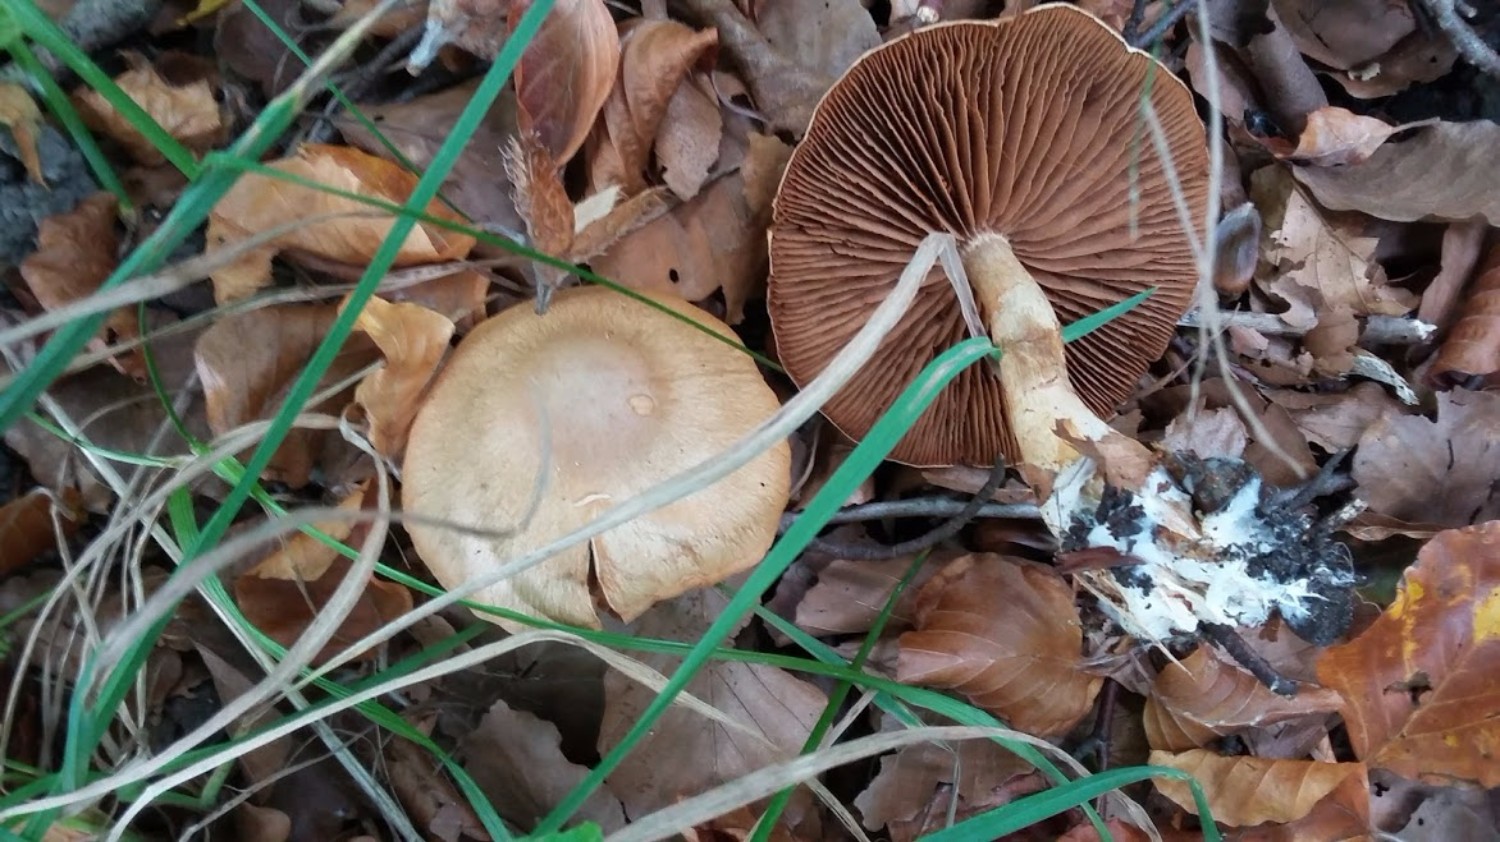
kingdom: Fungi
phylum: Basidiomycota
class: Agaricomycetes
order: Agaricales
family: Cortinariaceae
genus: Cortinarius
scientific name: Cortinarius
